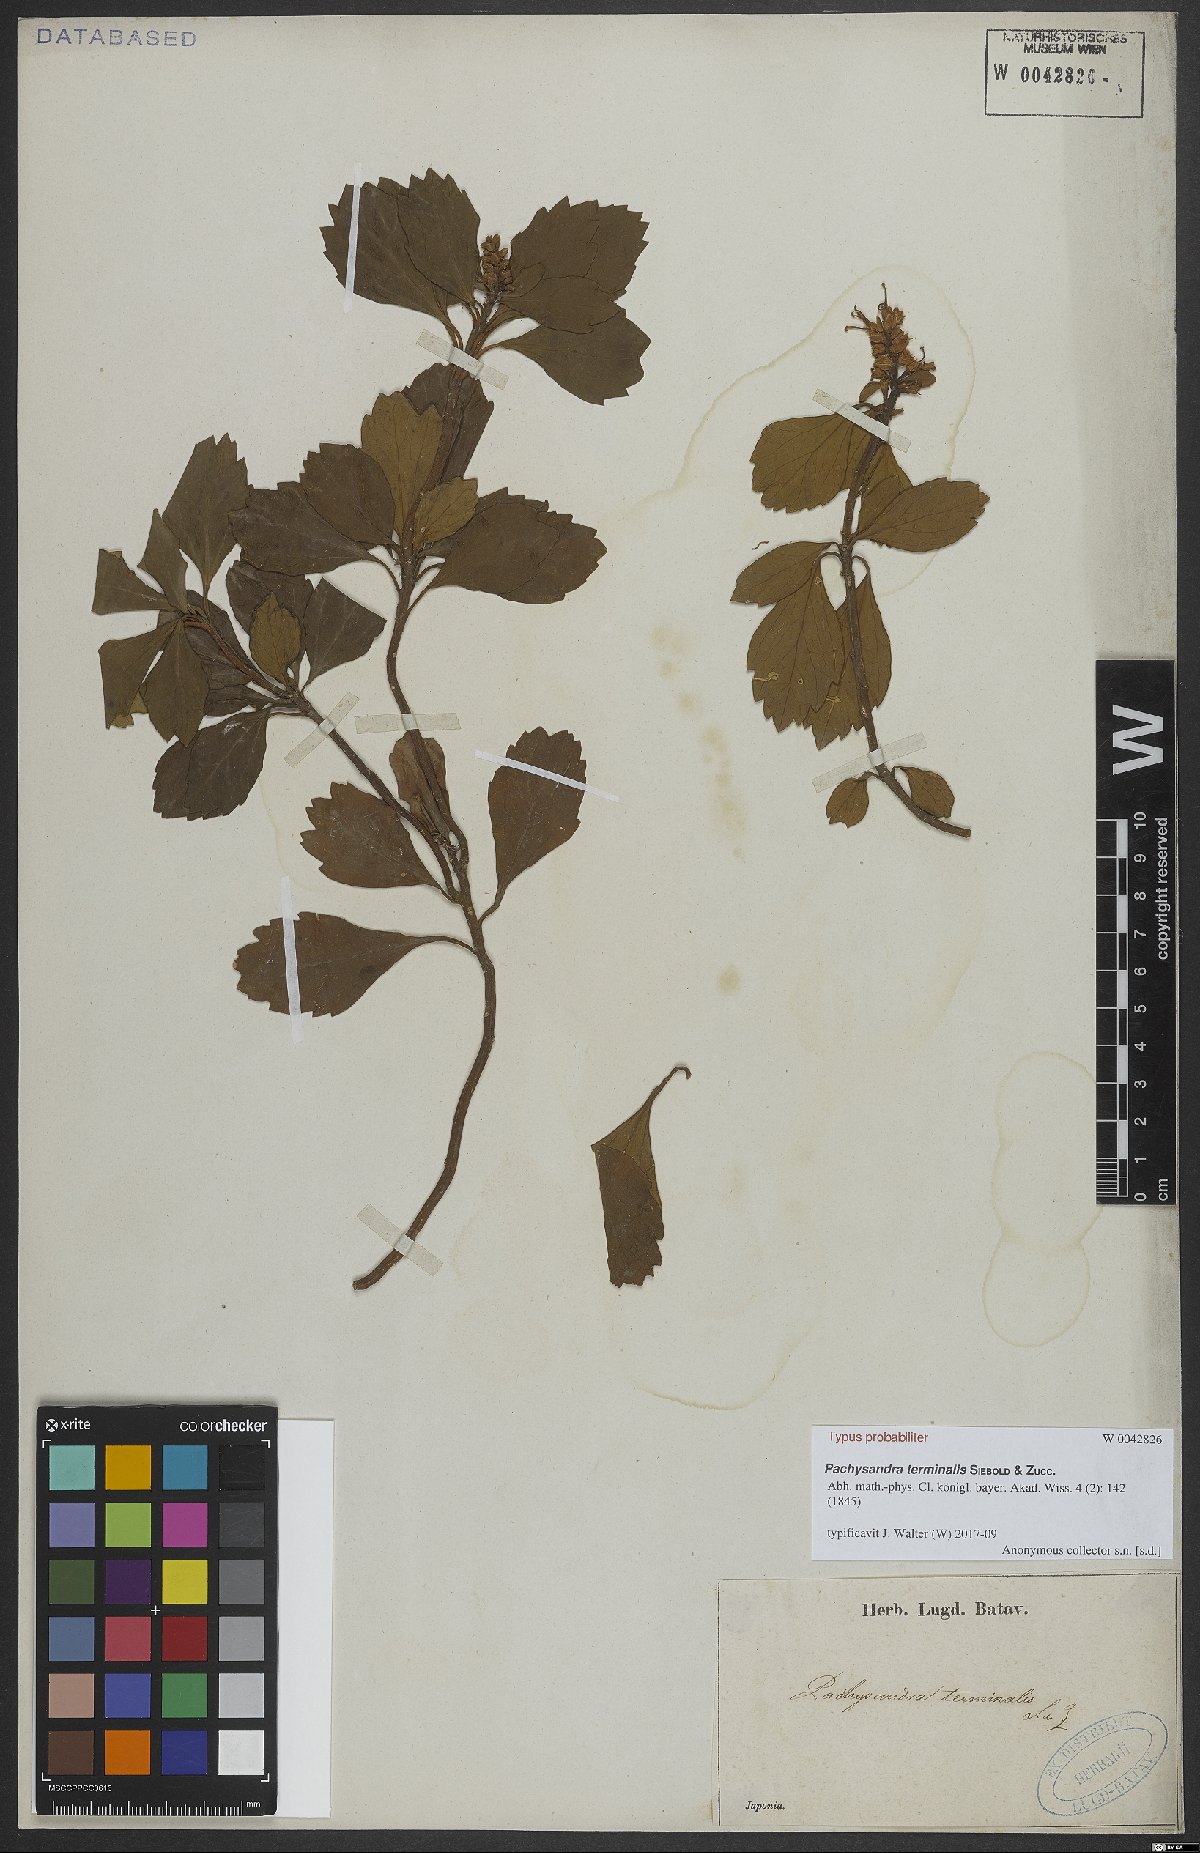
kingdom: Plantae
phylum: Tracheophyta
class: Magnoliopsida
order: Buxales
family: Buxaceae
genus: Pachysandra
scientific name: Pachysandra terminalis
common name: Japanese pachysandra
